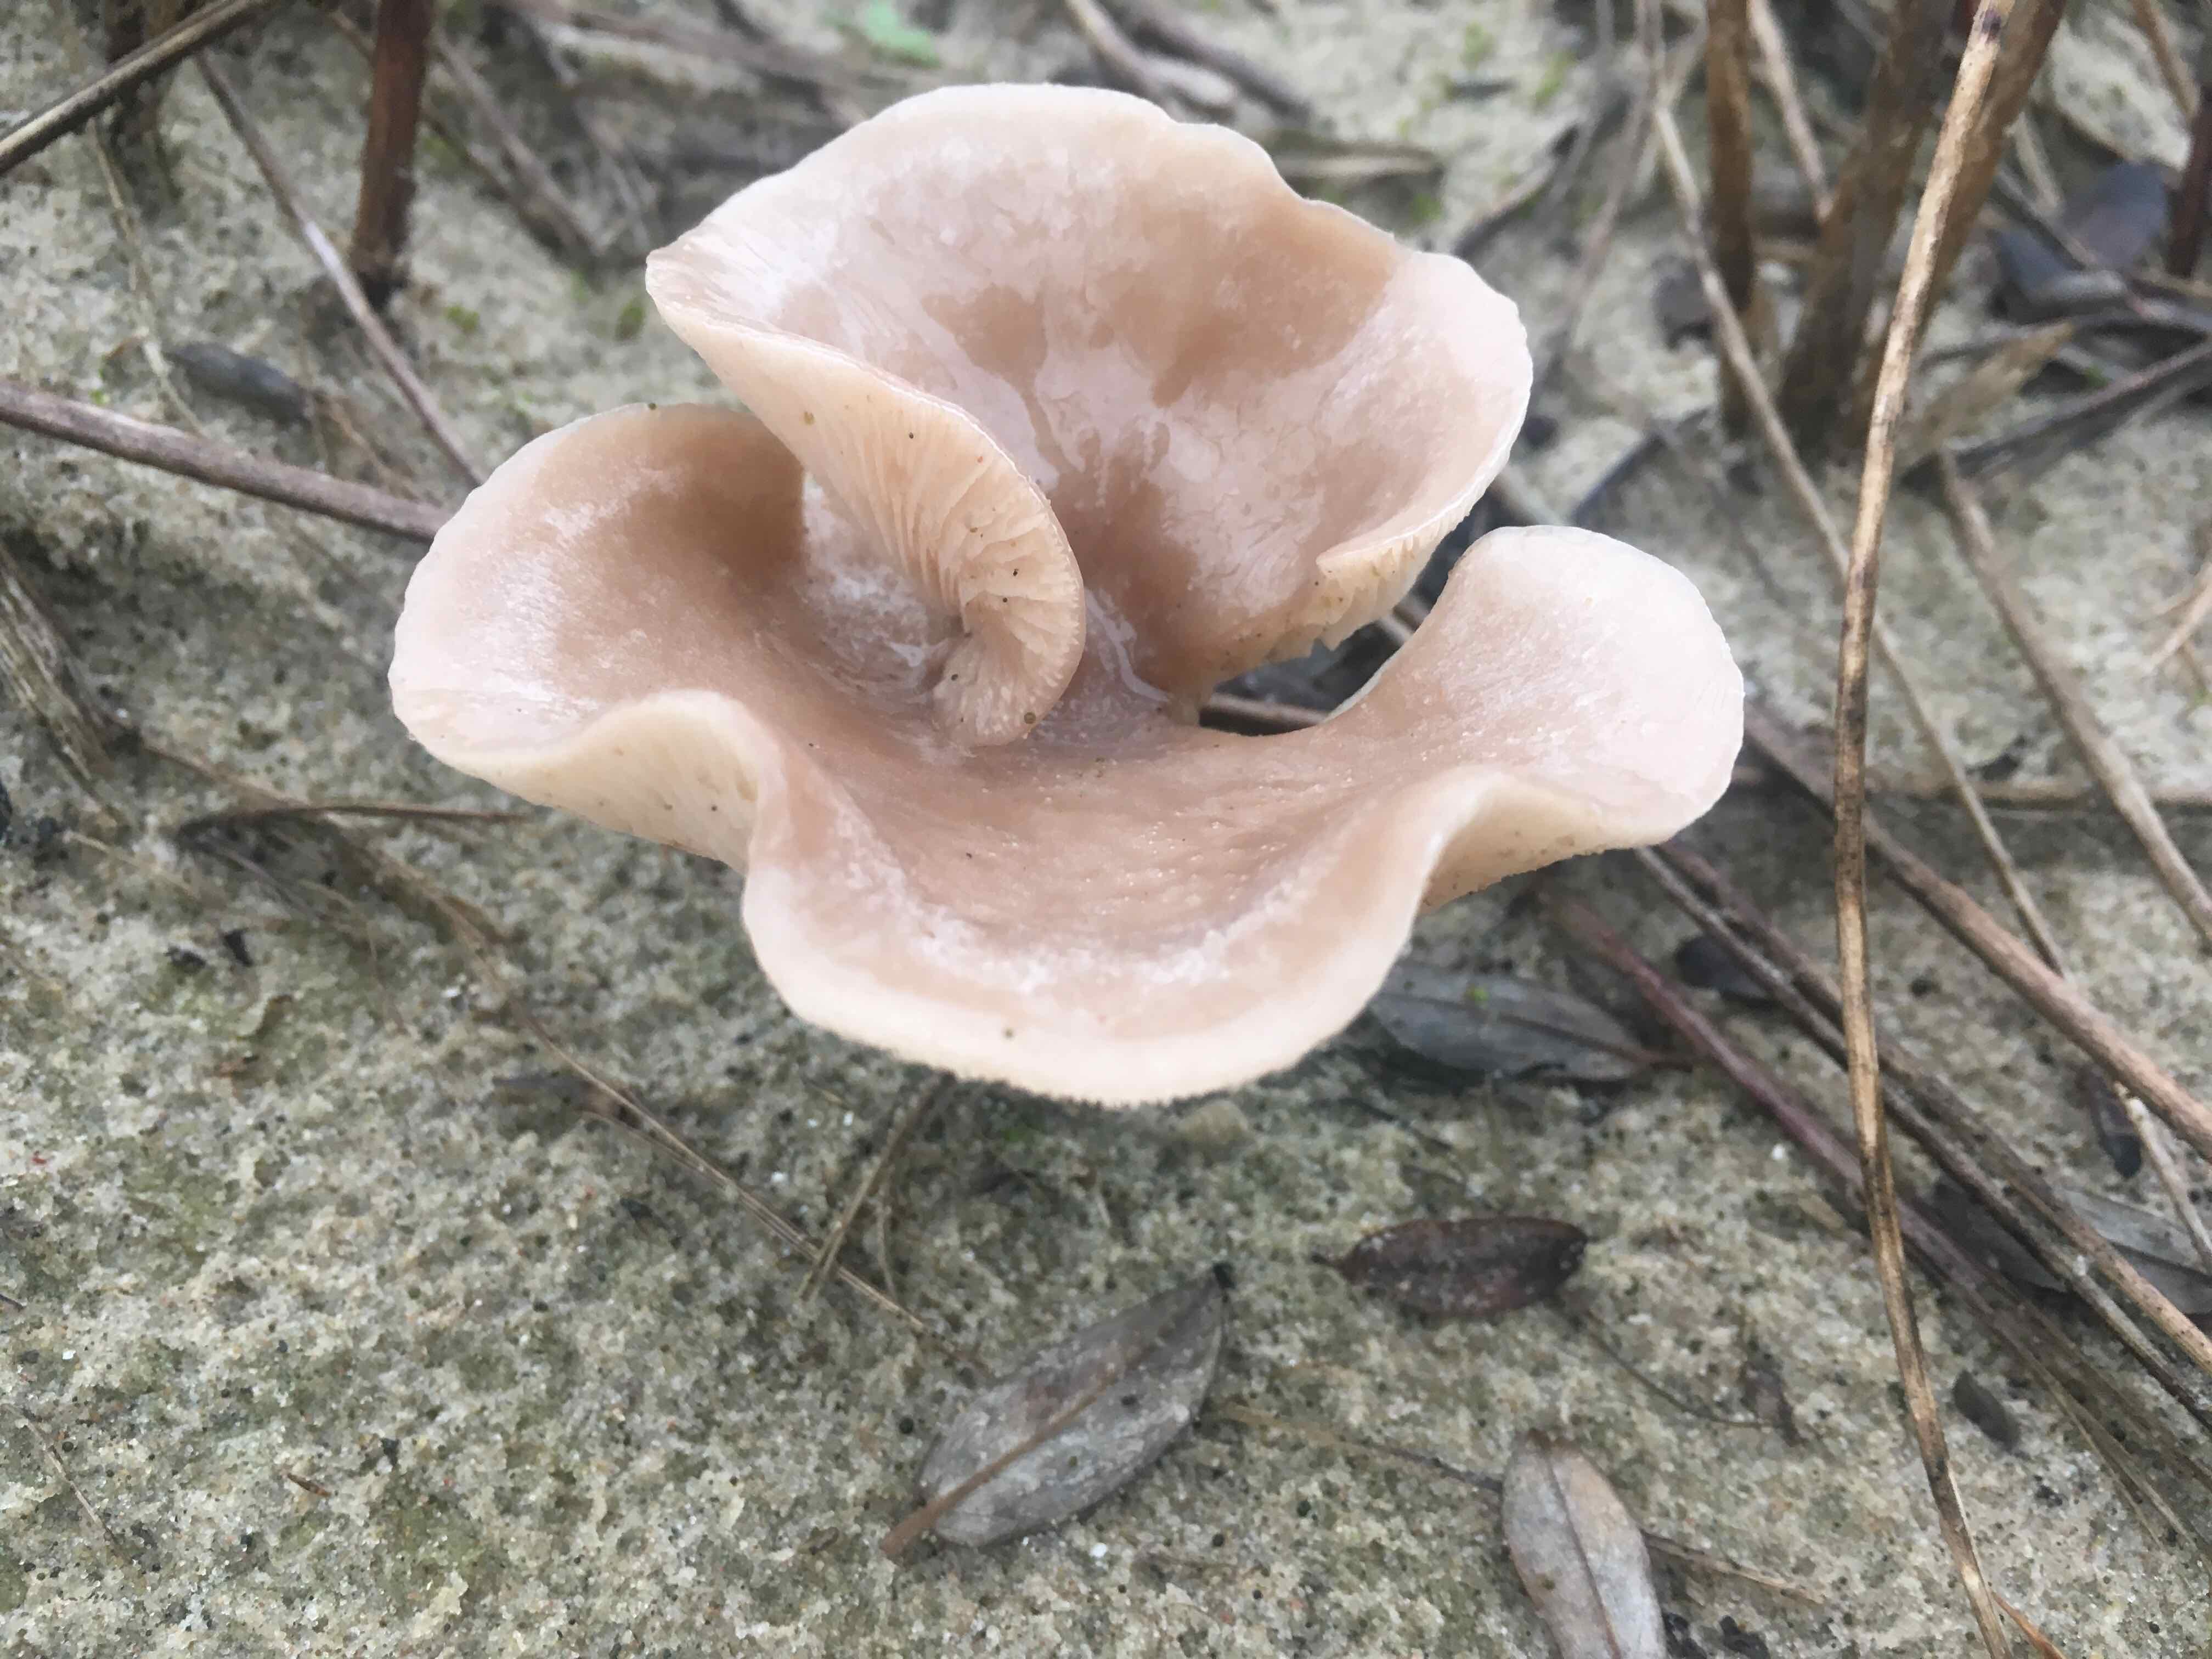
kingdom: Fungi
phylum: Basidiomycota
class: Agaricomycetes
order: Agaricales
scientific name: Agaricales
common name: champignonordenen
